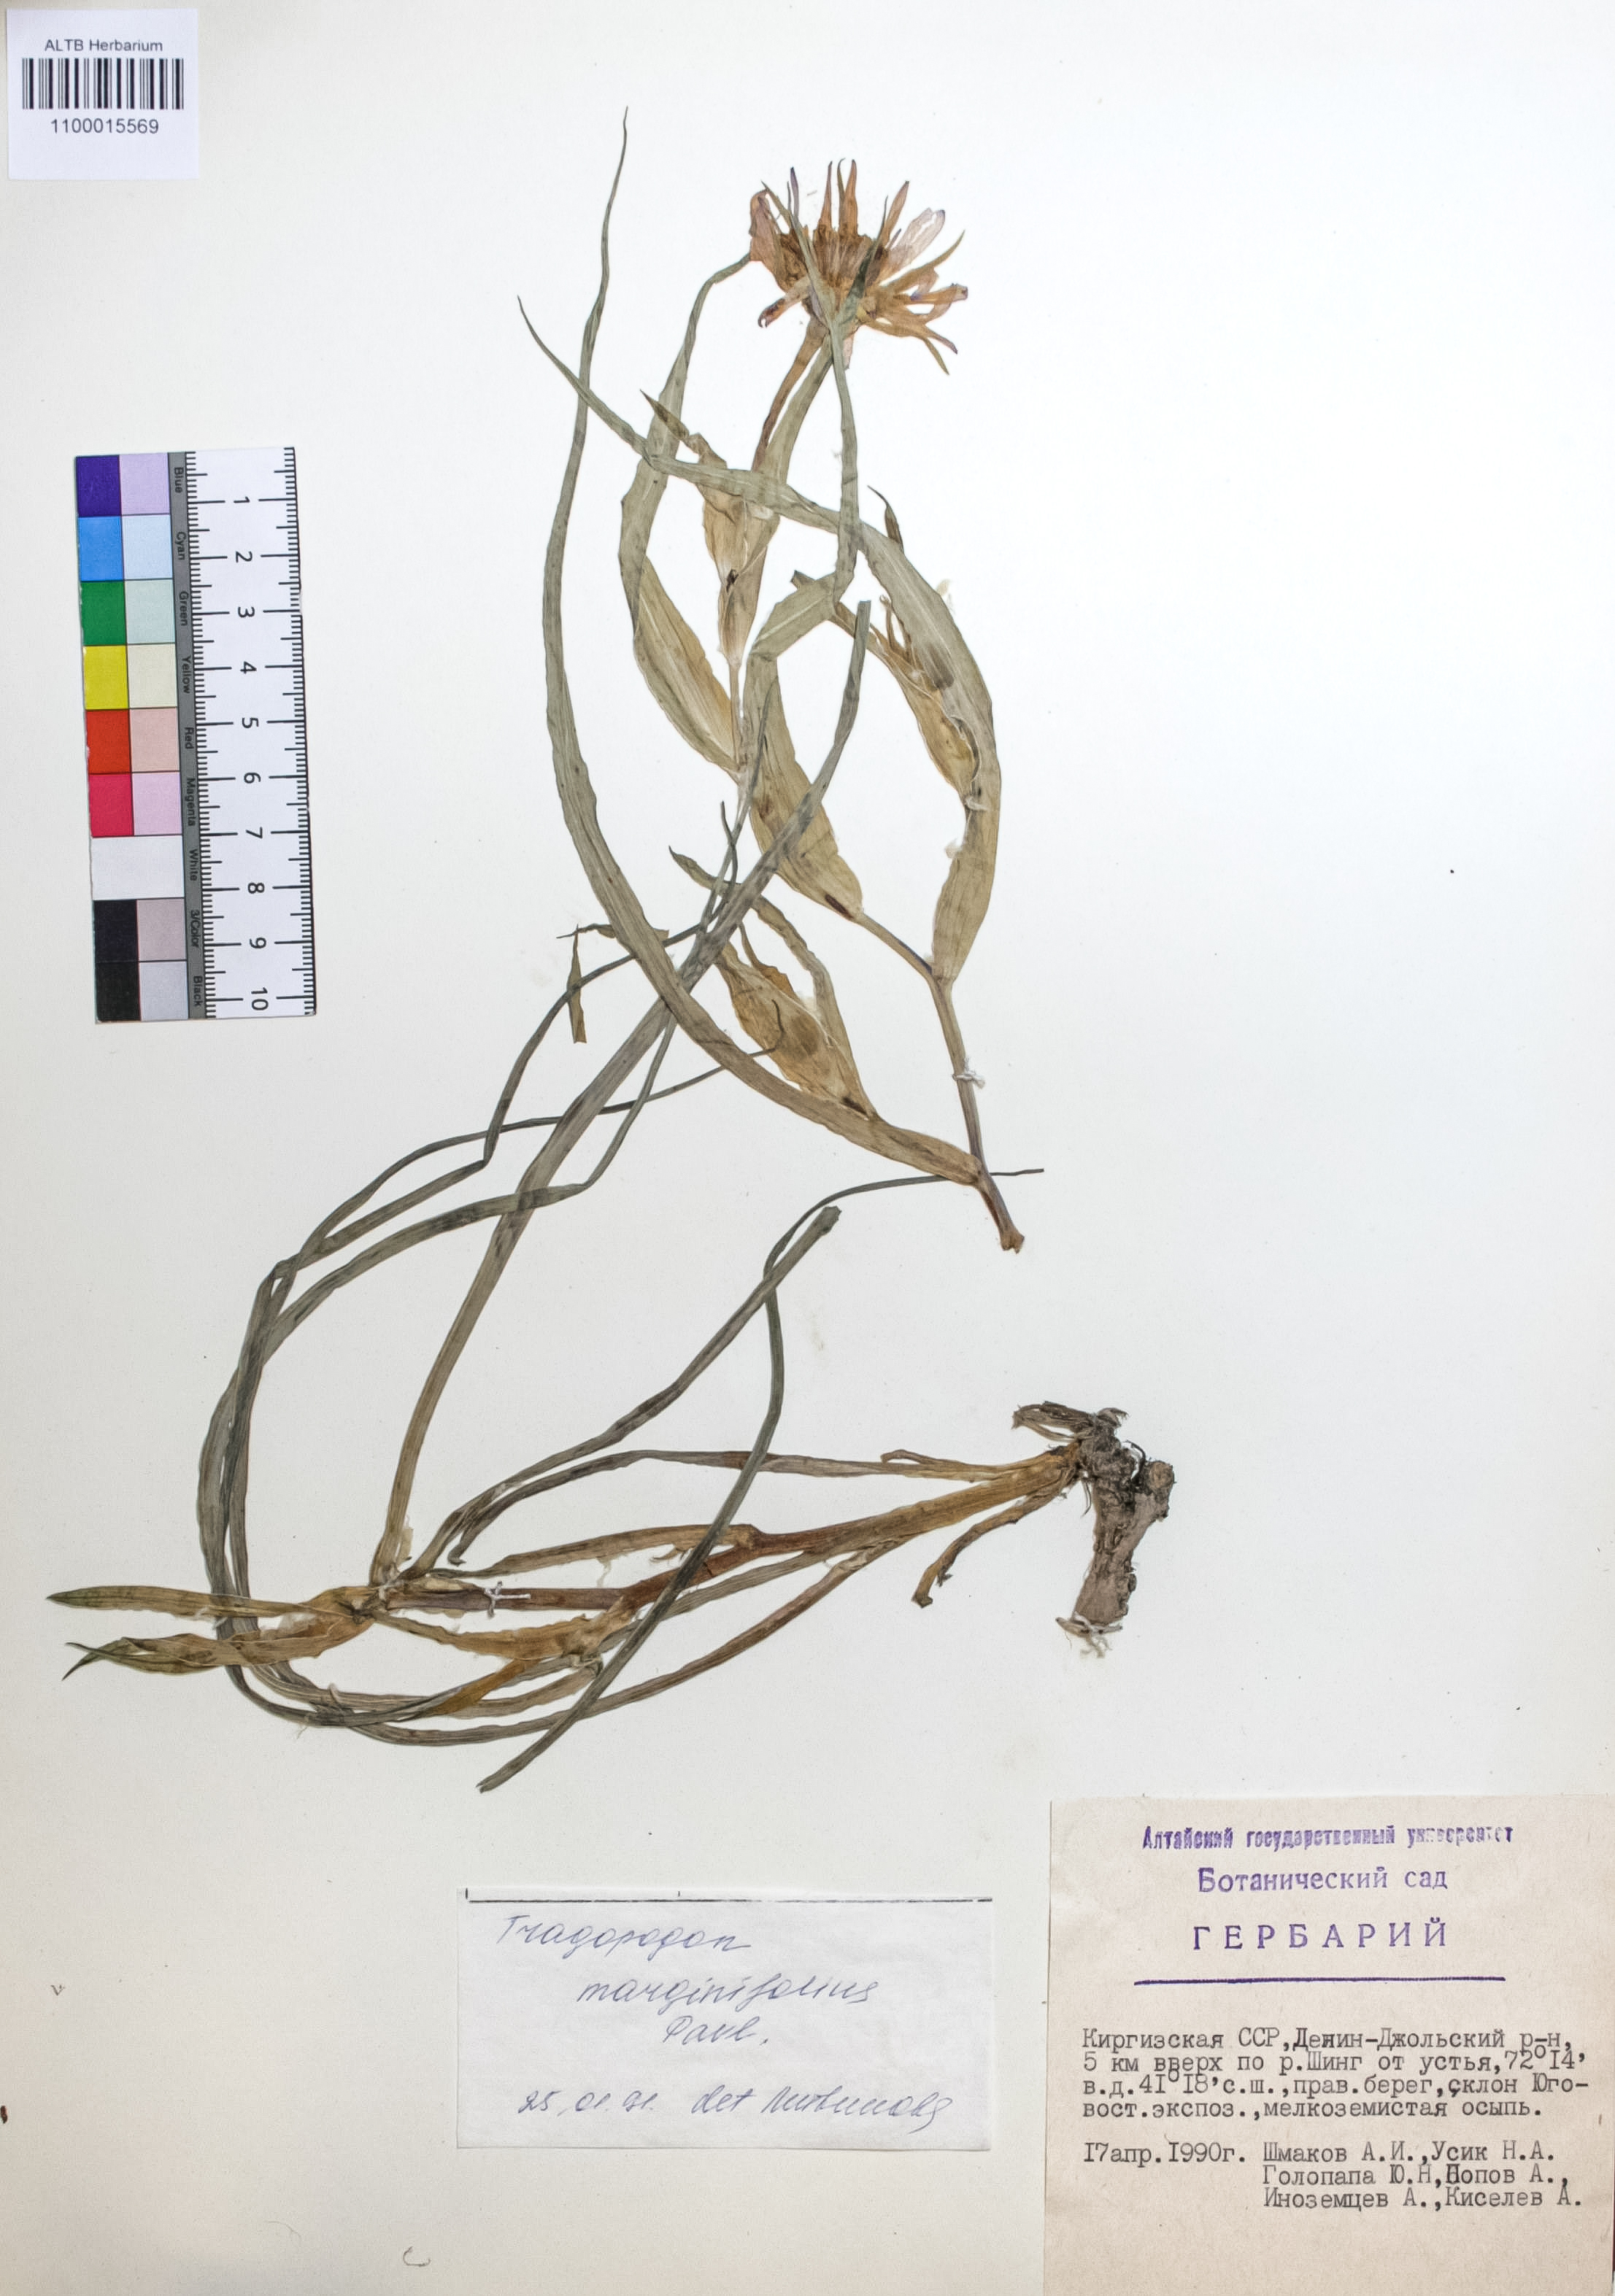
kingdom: Plantae
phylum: Tracheophyta
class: Magnoliopsida
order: Asterales
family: Asteraceae
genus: Tragopogon
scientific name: Tragopogon marginifolius
